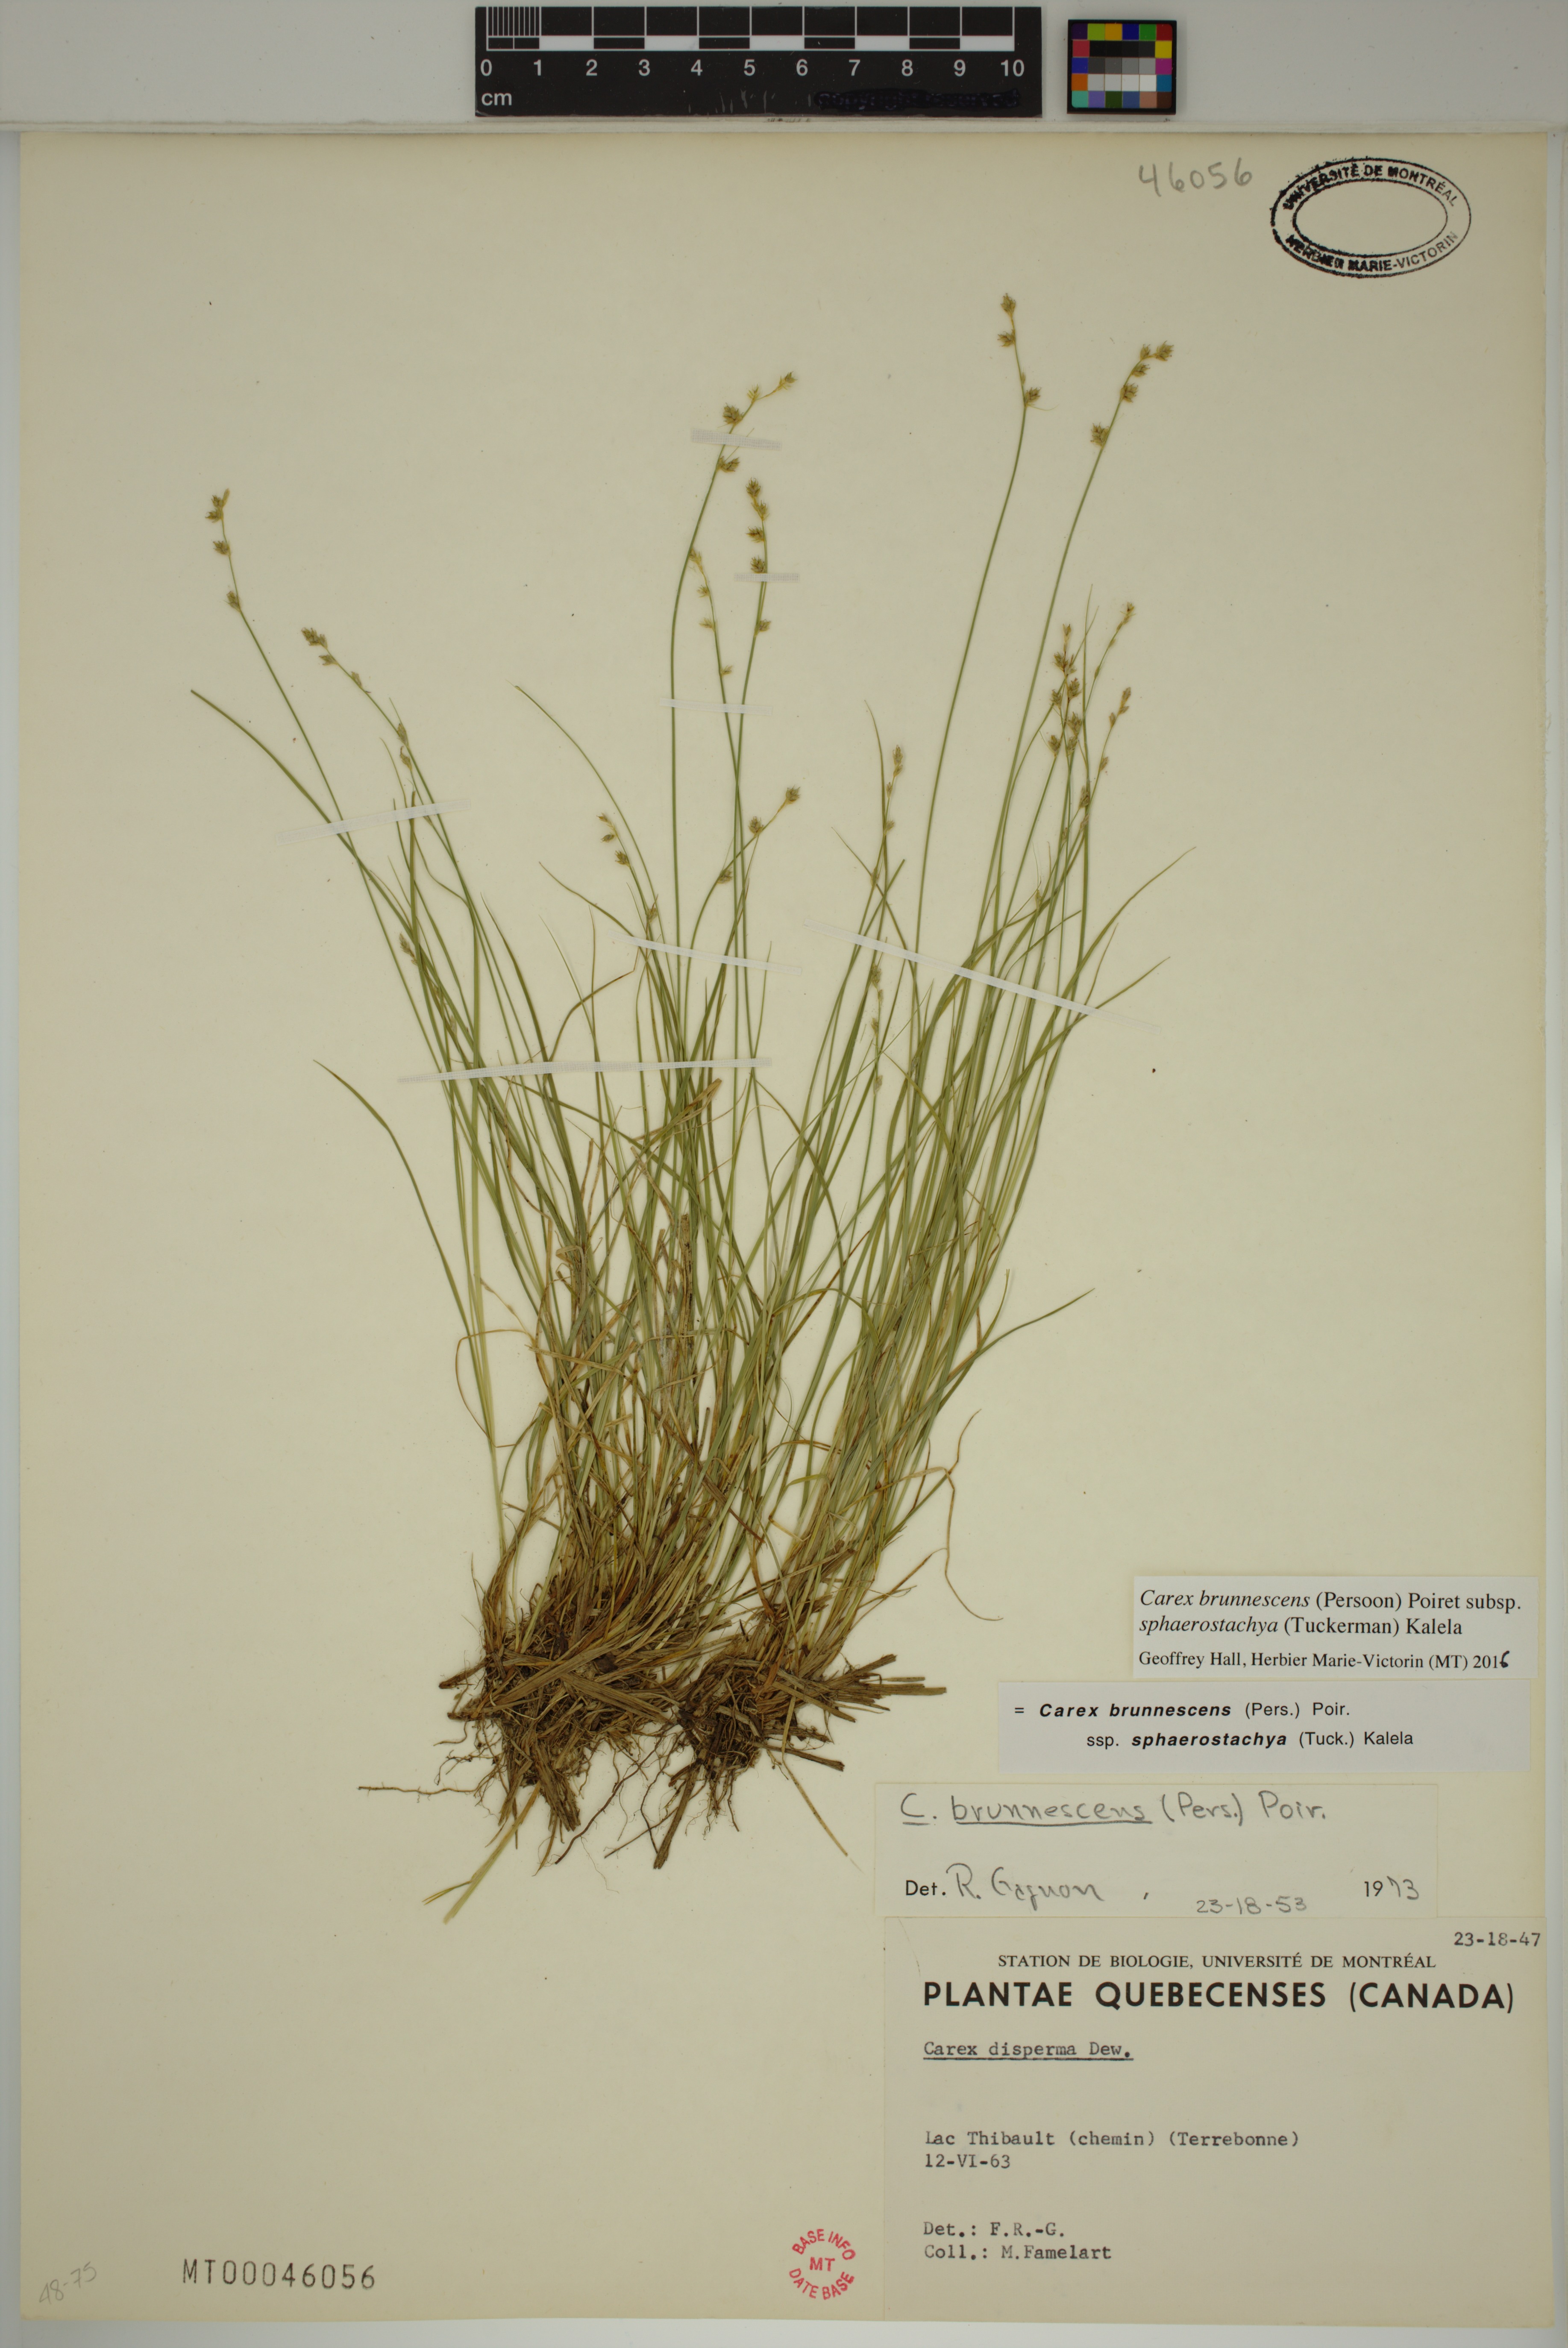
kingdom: Plantae
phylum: Tracheophyta
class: Liliopsida
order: Poales
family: Cyperaceae
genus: Carex
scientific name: Carex brunnescens
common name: Brown sedge
